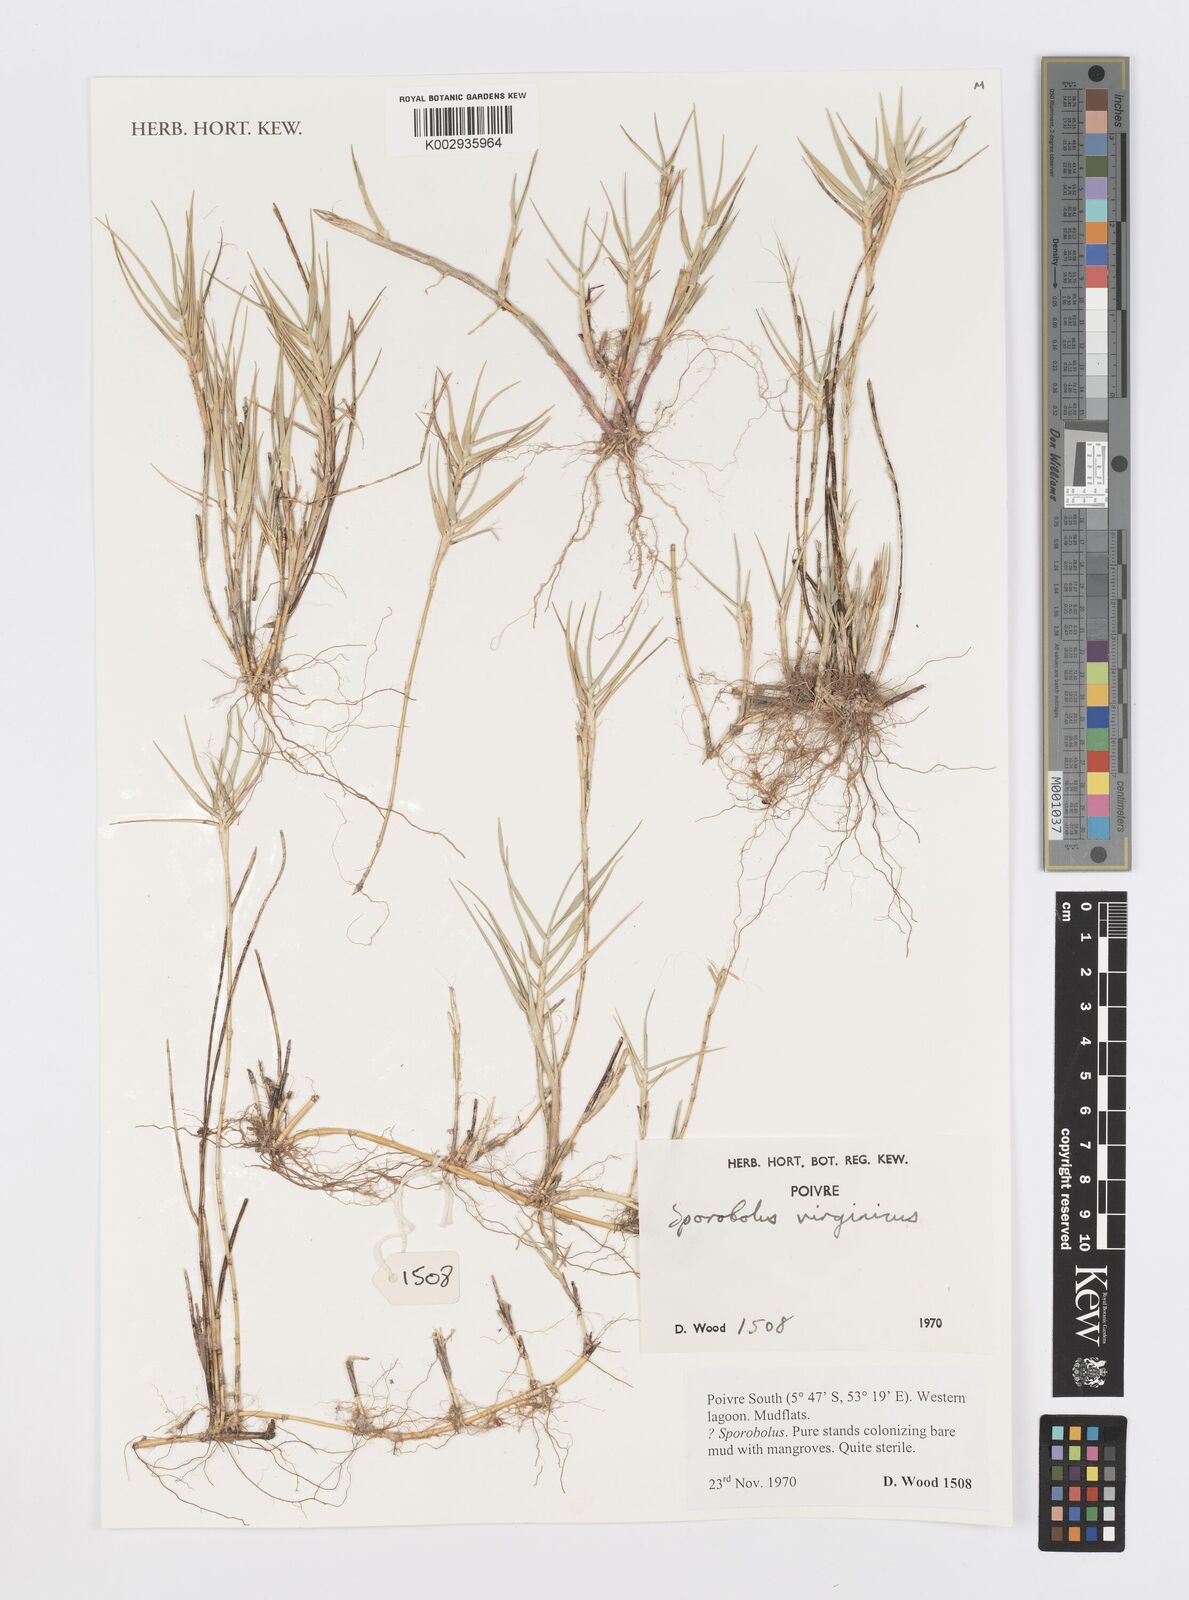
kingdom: Plantae
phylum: Tracheophyta
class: Liliopsida
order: Poales
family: Poaceae
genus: Sporobolus
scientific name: Sporobolus virginicus
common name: Beach dropseed
